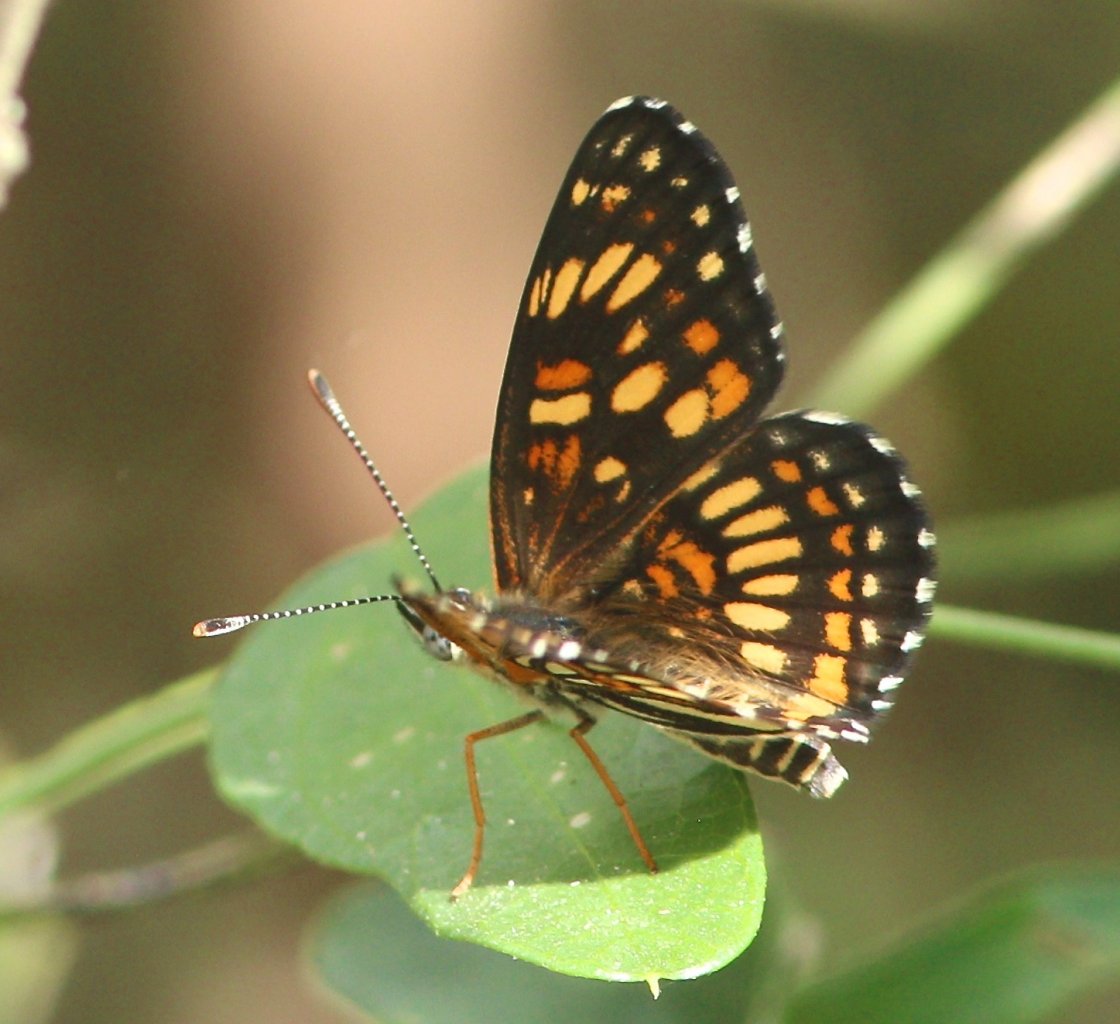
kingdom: Animalia
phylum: Arthropoda
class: Insecta
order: Lepidoptera
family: Nymphalidae
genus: Thessalia
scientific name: Thessalia theona
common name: Theona Checkerspot
